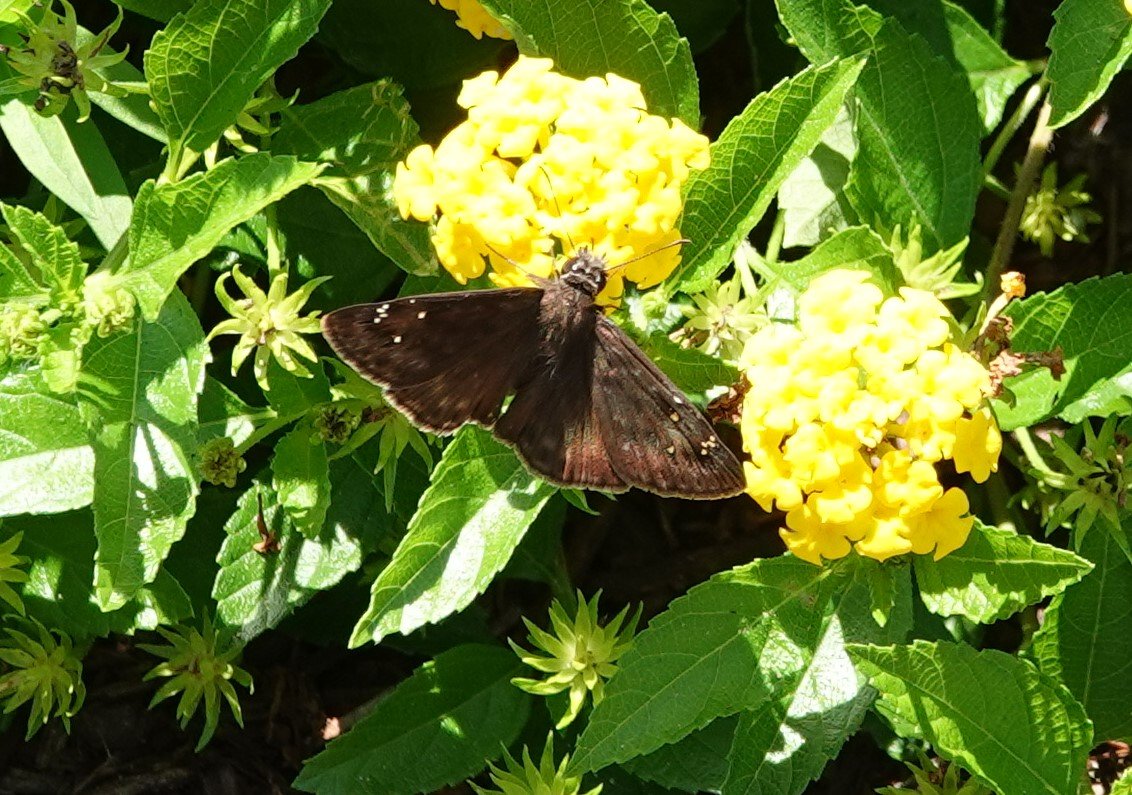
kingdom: Animalia
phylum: Arthropoda
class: Insecta
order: Lepidoptera
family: Hesperiidae
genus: Gesta
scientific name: Gesta
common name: Horace's Duskywing
